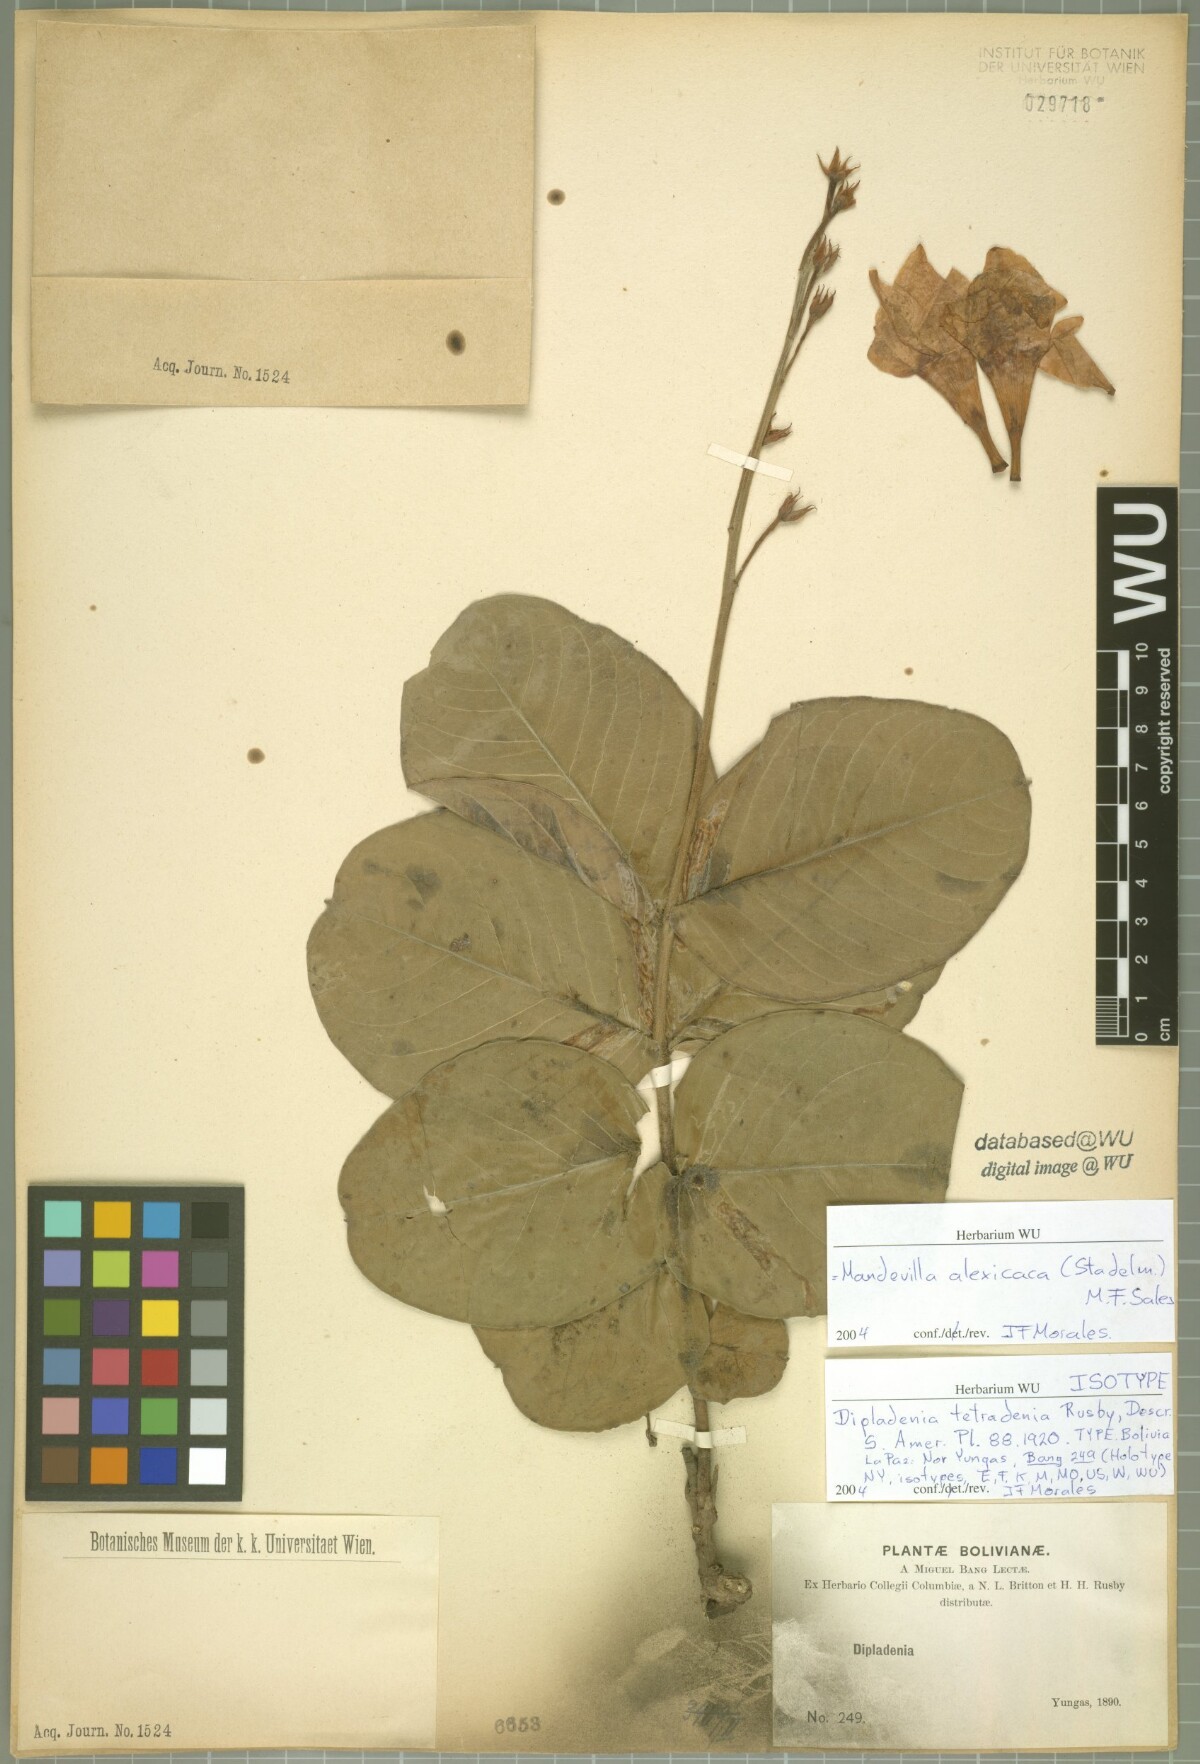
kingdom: Plantae
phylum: Tracheophyta
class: Magnoliopsida
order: Gentianales
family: Apocynaceae
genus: Mandevilla
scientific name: Mandevilla alexicaca
